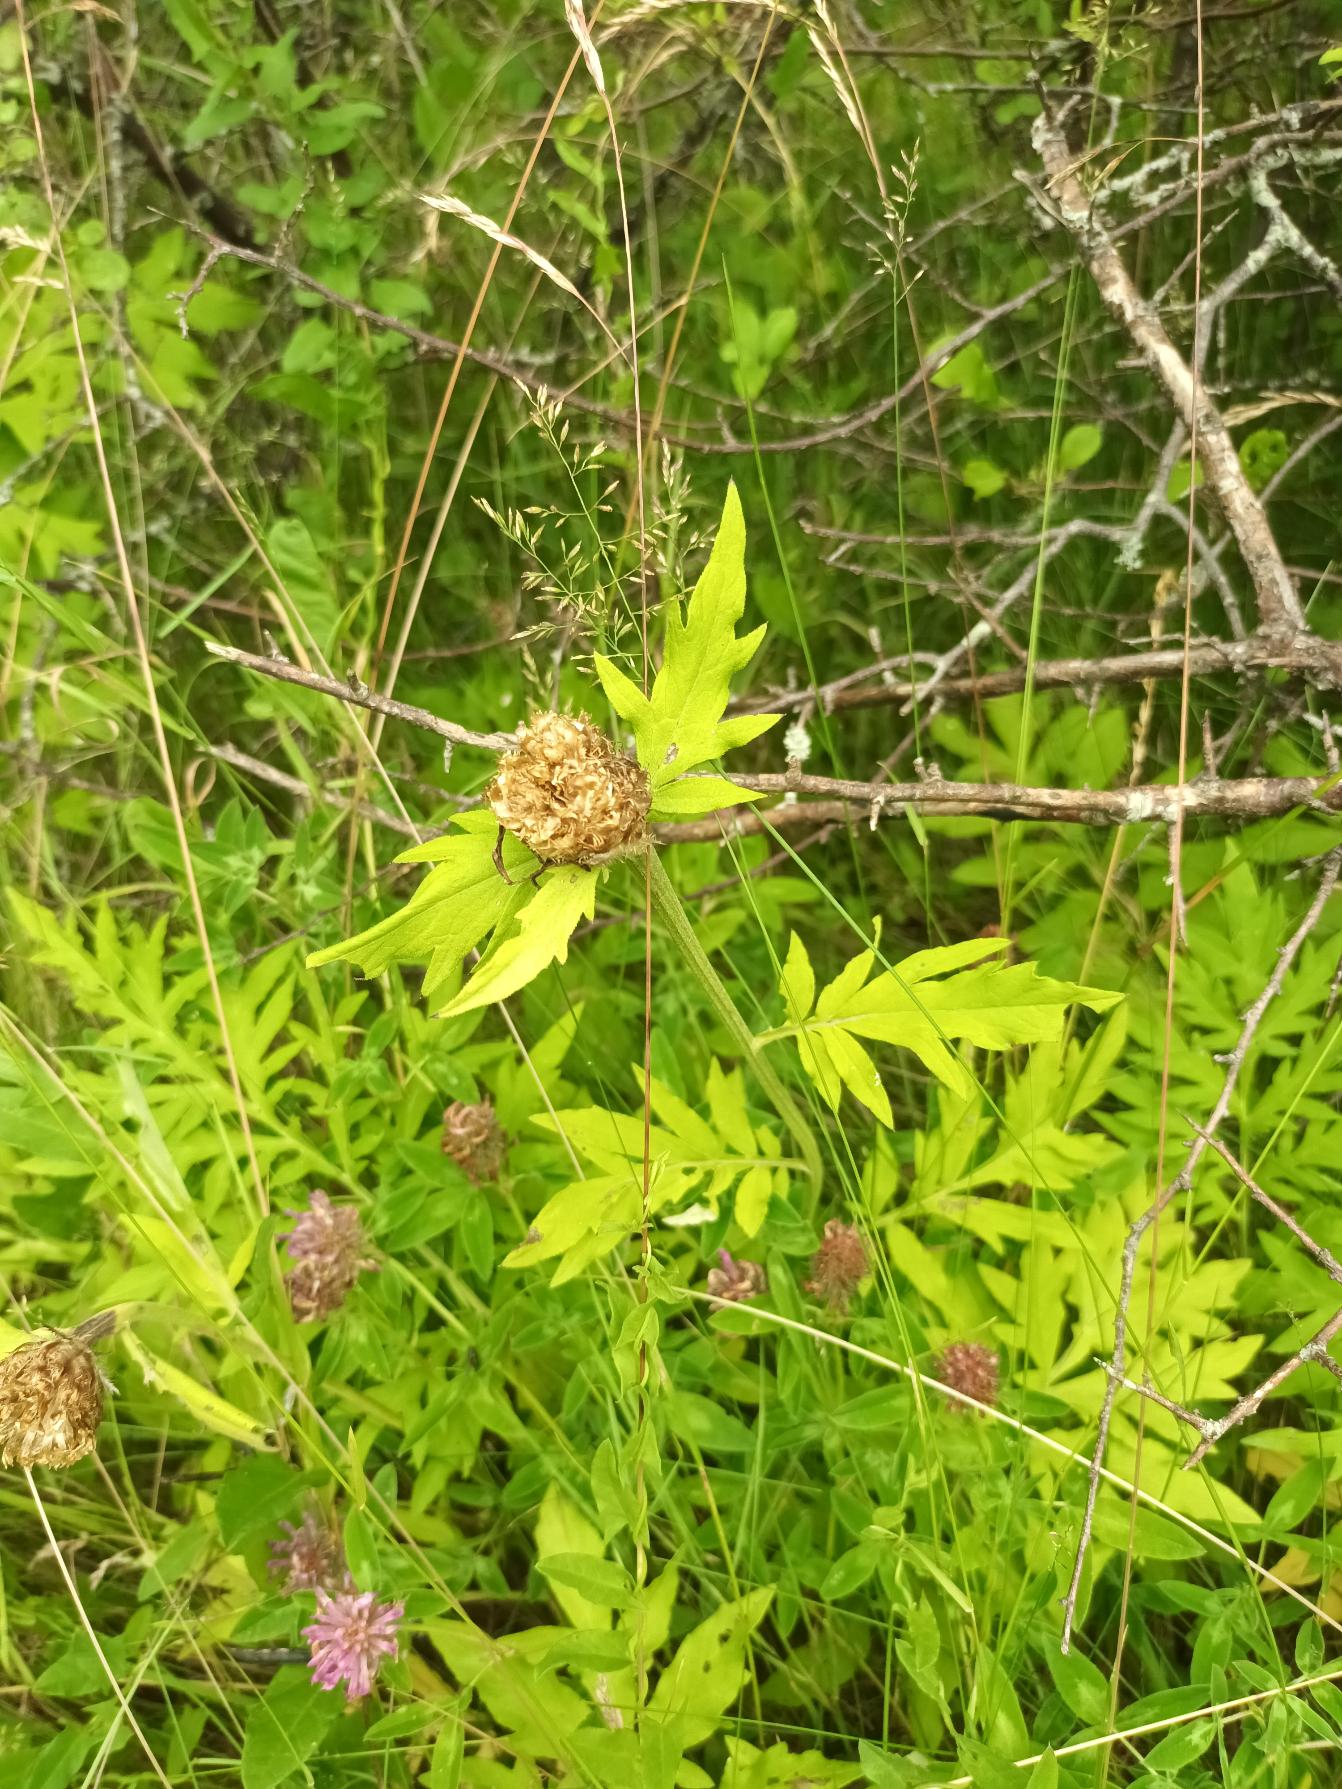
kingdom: Plantae
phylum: Tracheophyta
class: Magnoliopsida
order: Asterales
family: Asteraceae
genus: Psephellus
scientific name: Psephellus dealbatus
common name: Have-knopurt
